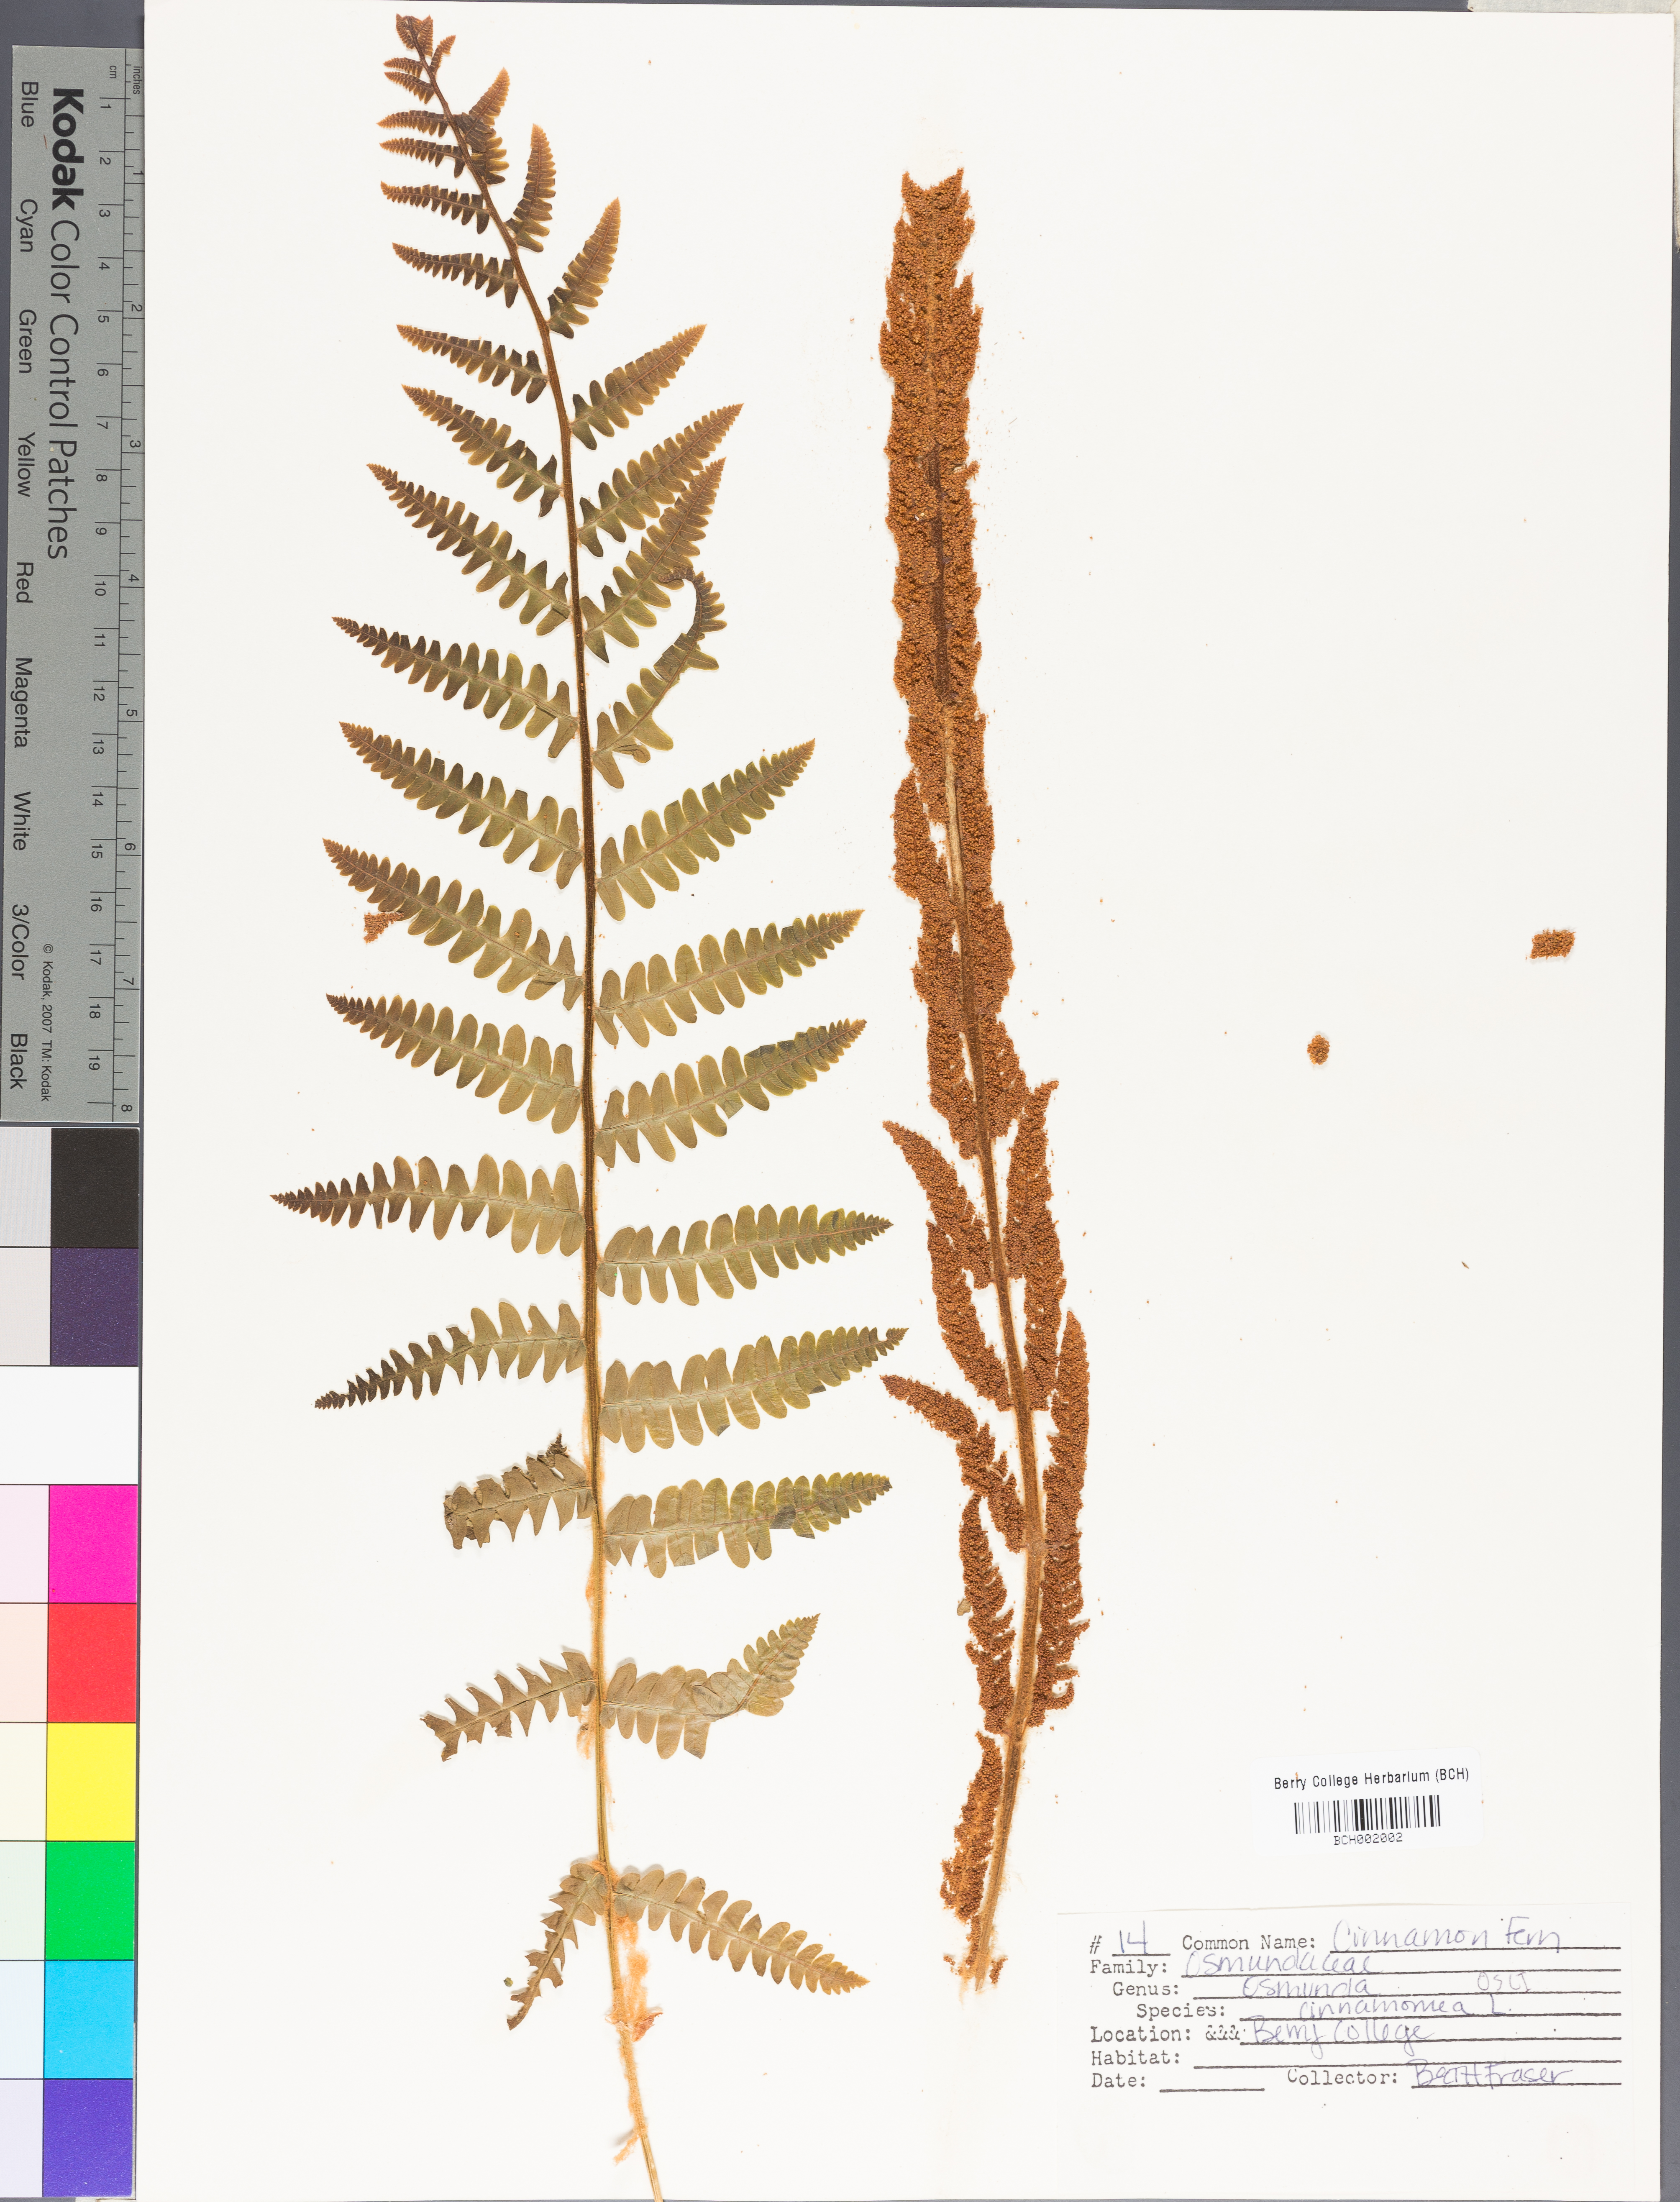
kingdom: Plantae
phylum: Tracheophyta
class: Polypodiopsida
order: Osmundales
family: Osmundaceae
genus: Osmundastrum
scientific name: Osmundastrum cinnamomeum
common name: Cinnamon fern
